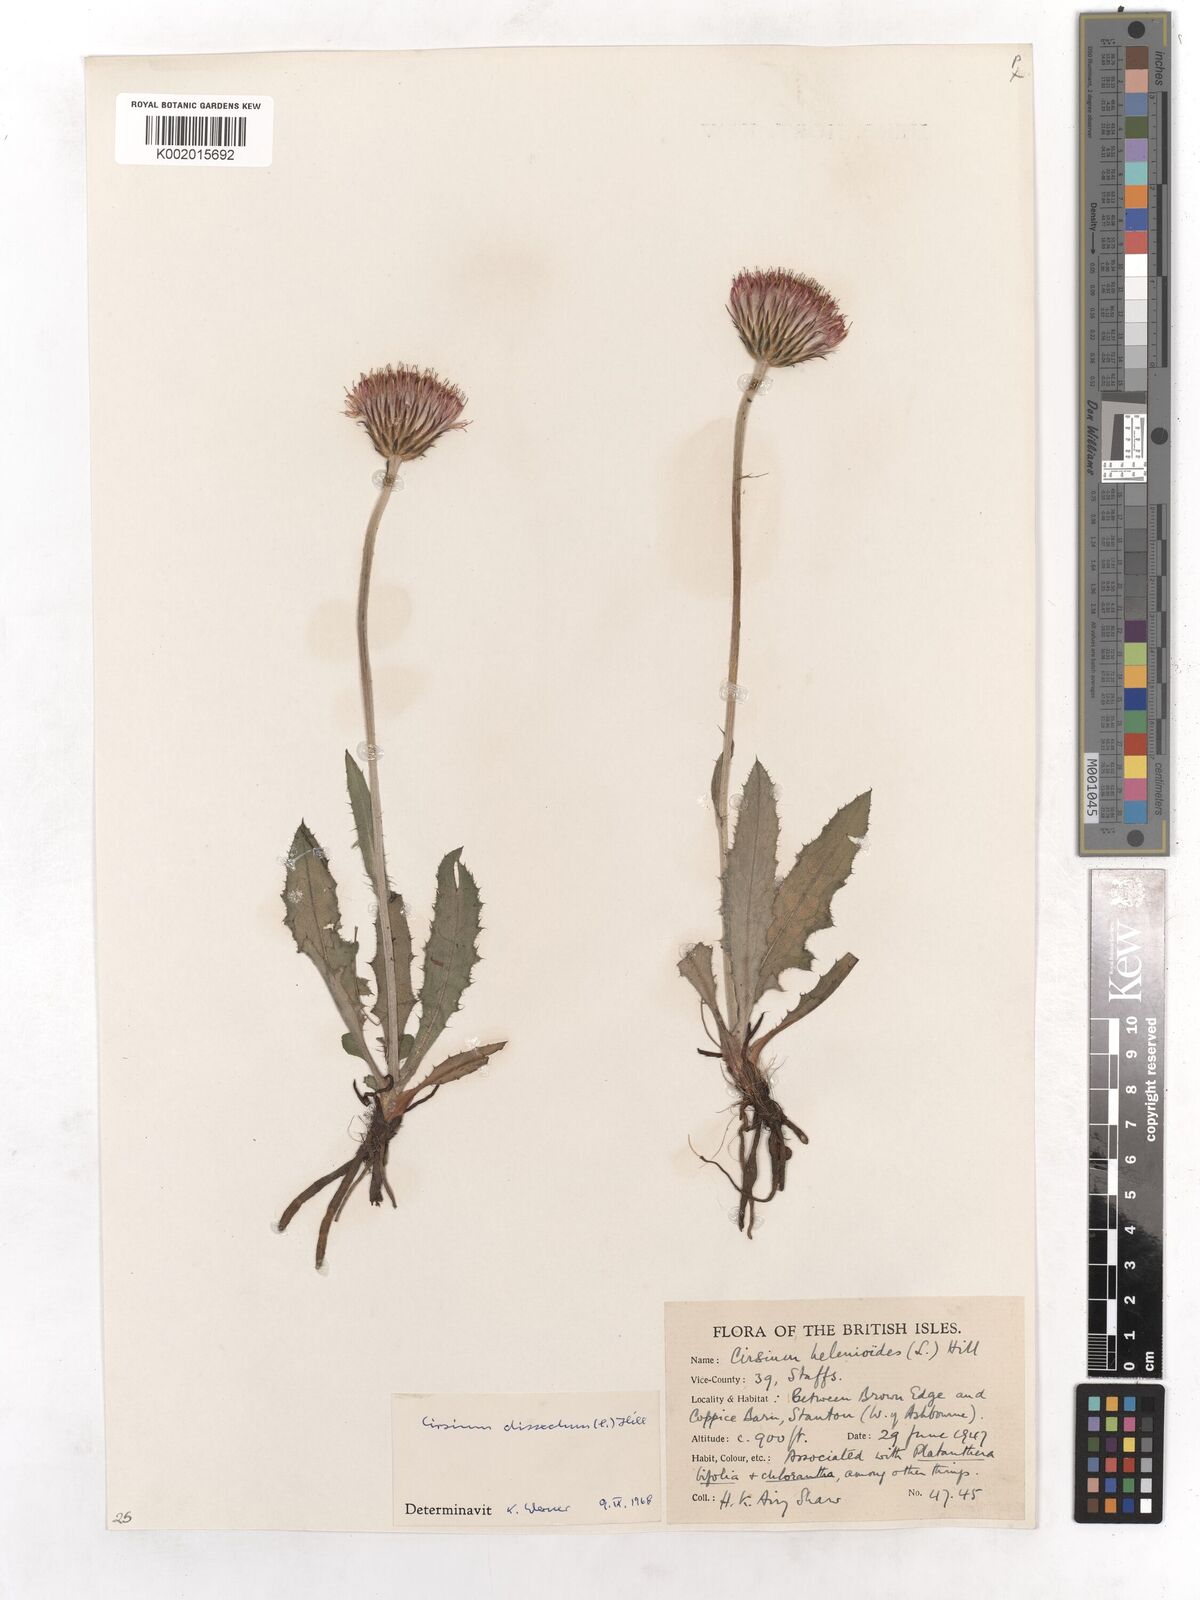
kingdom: Plantae
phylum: Tracheophyta
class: Magnoliopsida
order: Asterales
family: Asteraceae
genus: Cirsium
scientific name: Cirsium dissectum
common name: Meadow thistle
